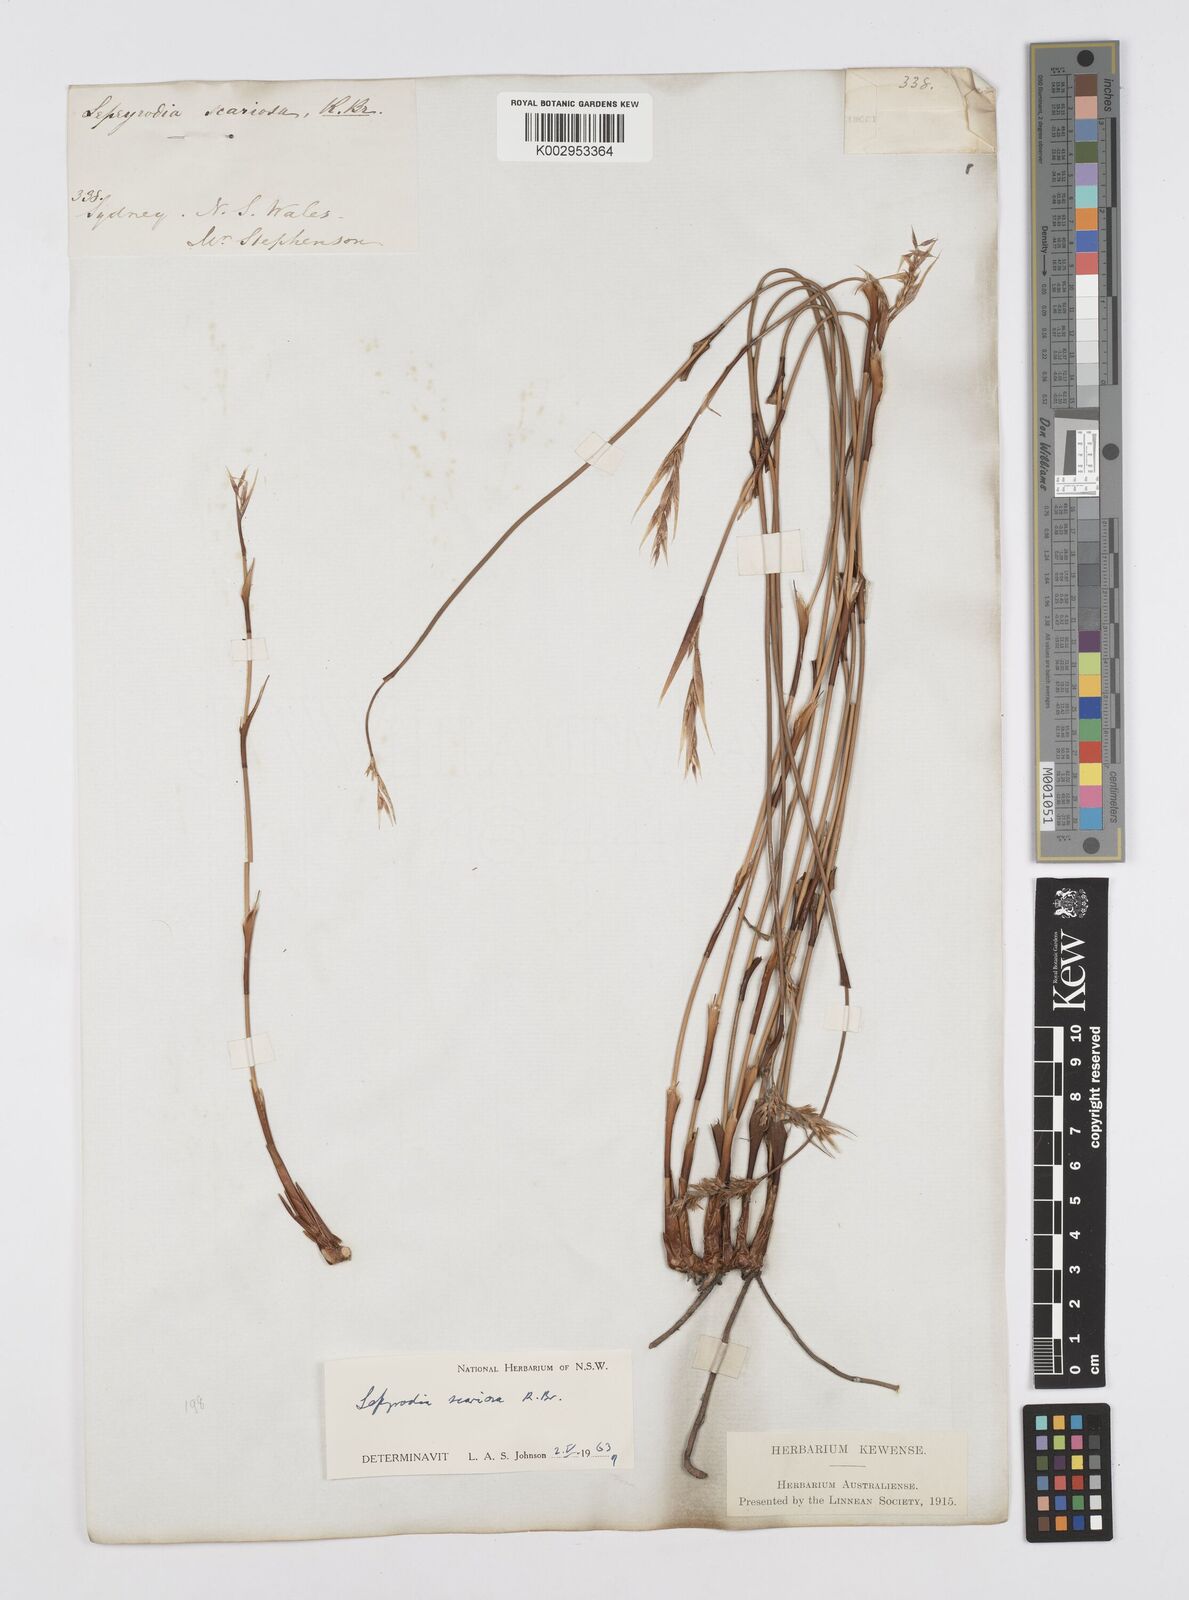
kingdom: Plantae
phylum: Tracheophyta
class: Liliopsida
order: Poales
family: Restionaceae
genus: Lepyrodia
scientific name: Lepyrodia scariosa
